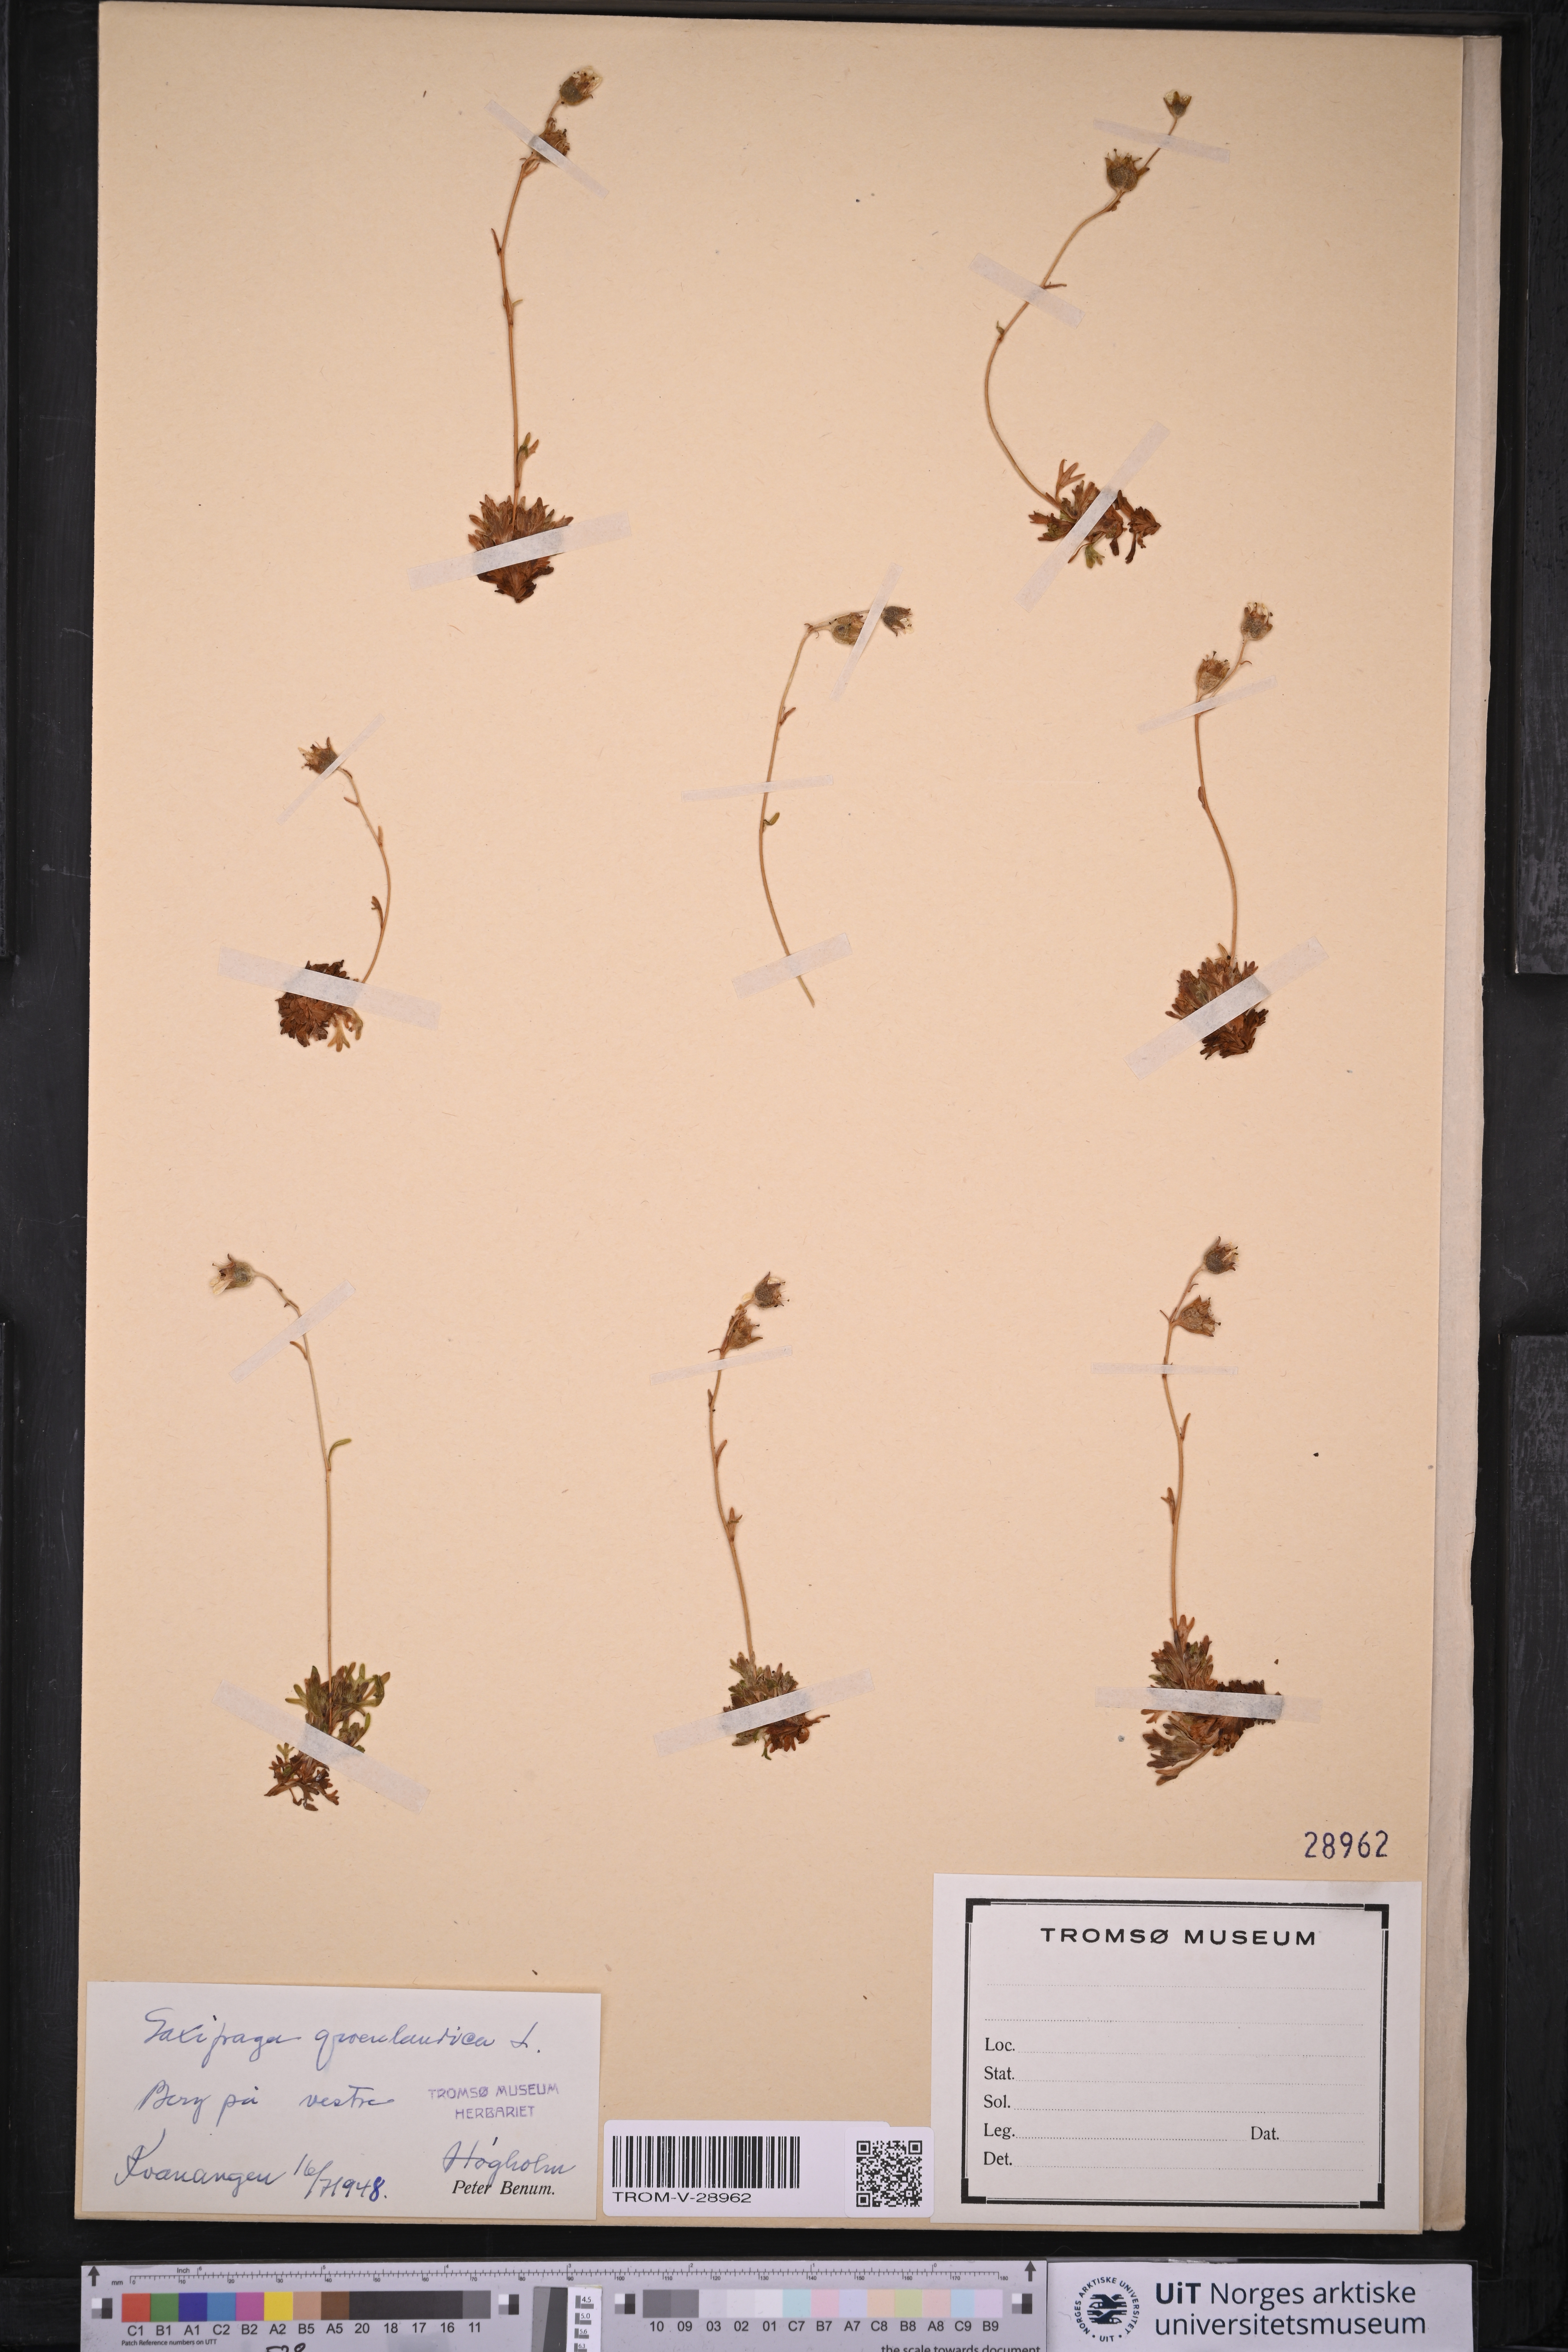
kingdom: Plantae
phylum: Tracheophyta
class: Magnoliopsida
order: Saxifragales
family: Saxifragaceae
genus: Saxifraga
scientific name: Saxifraga cespitosa
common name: Tufted saxifrage
